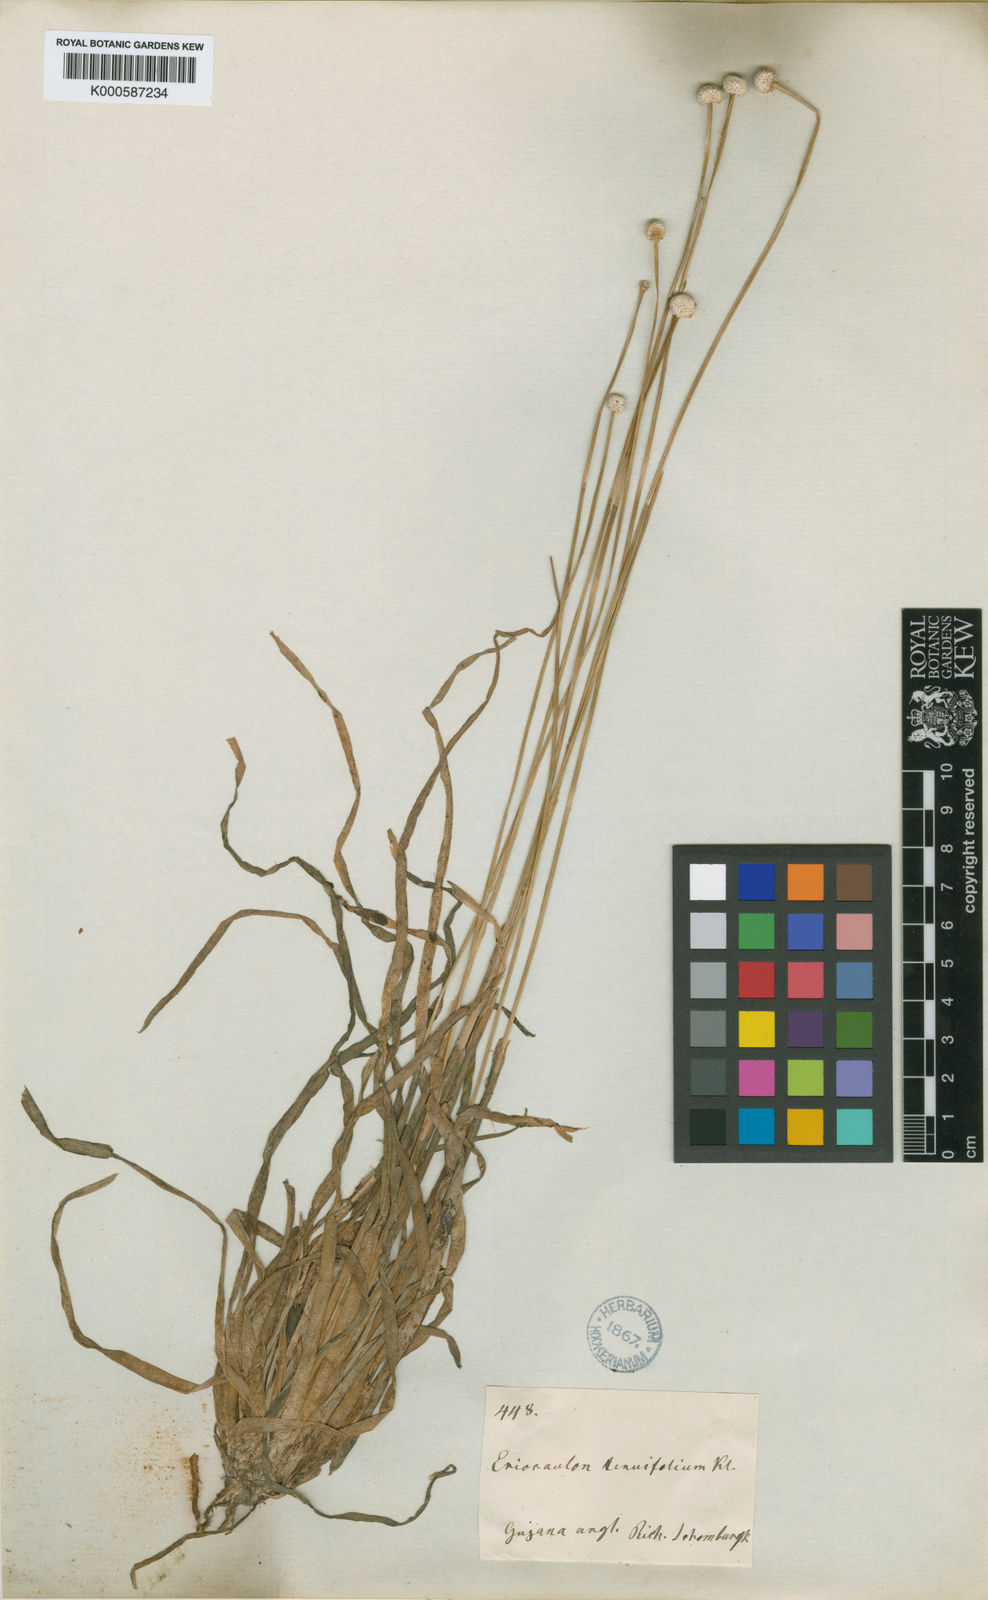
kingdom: Plantae
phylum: Tracheophyta
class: Liliopsida
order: Poales
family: Eriocaulaceae
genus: Eriocaulon
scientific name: Eriocaulon
